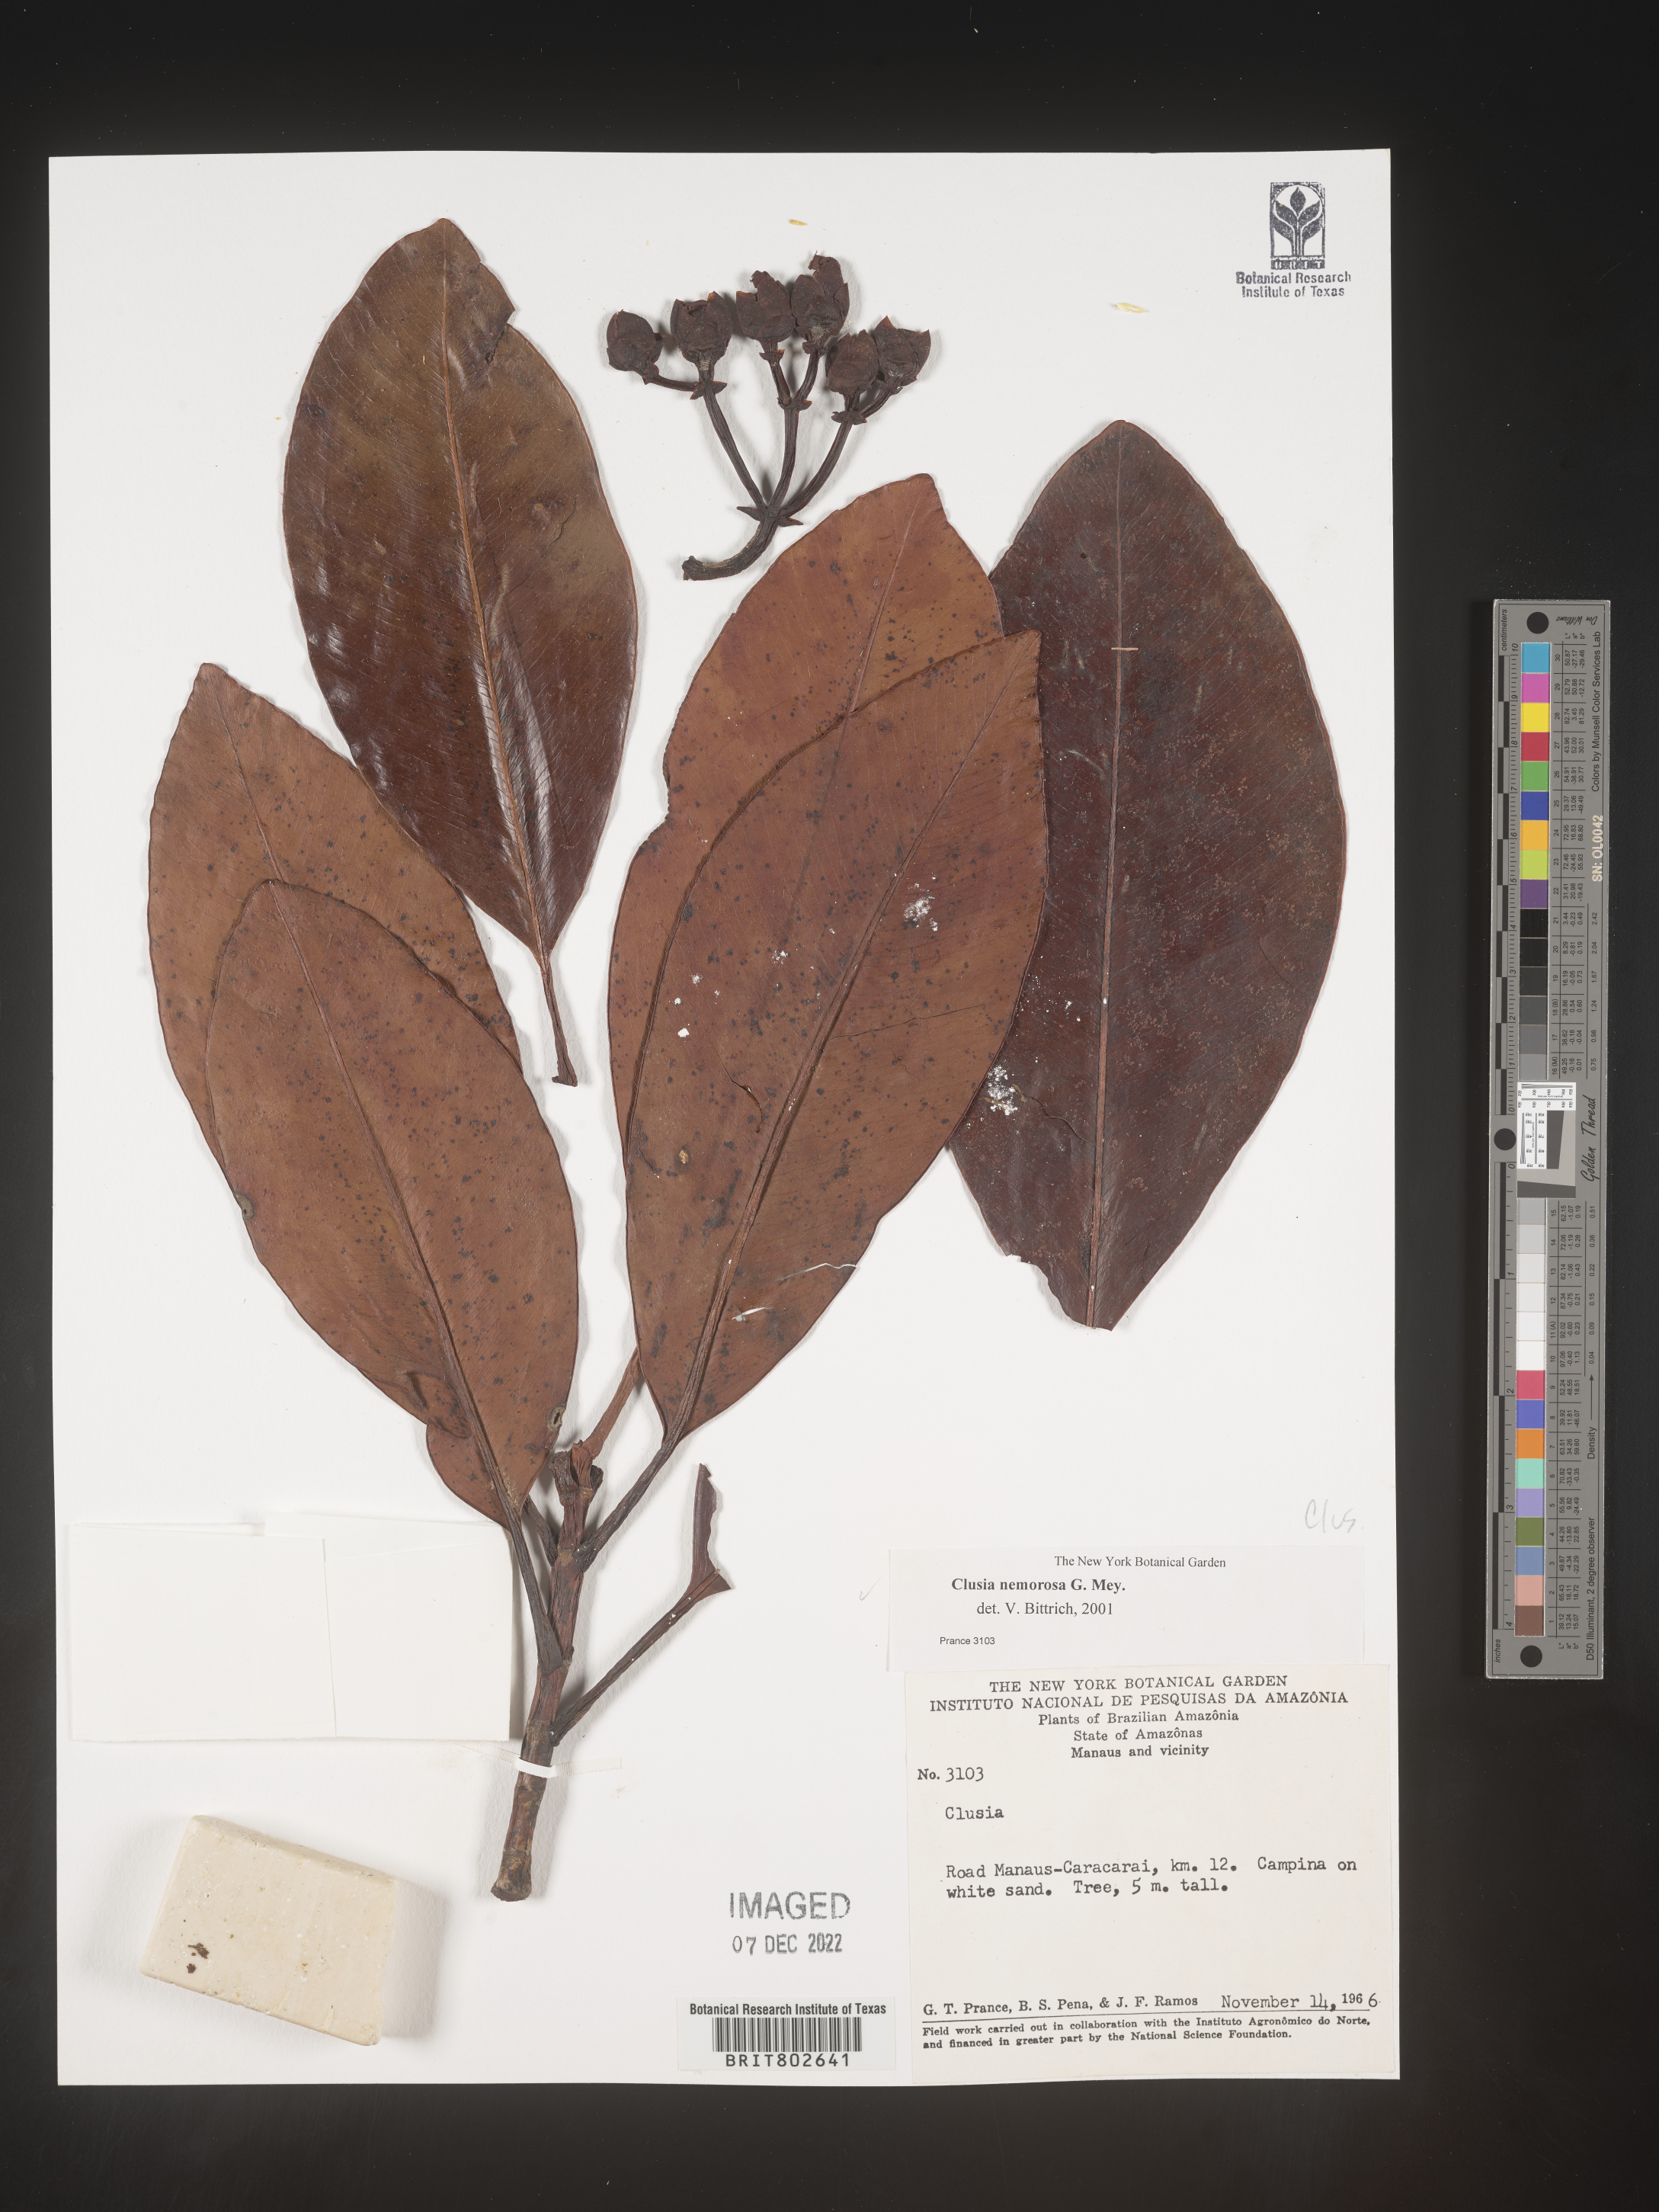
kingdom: Plantae
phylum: Tracheophyta
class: Magnoliopsida
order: Malpighiales
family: Clusiaceae
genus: Clusia
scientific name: Clusia nemorosa
